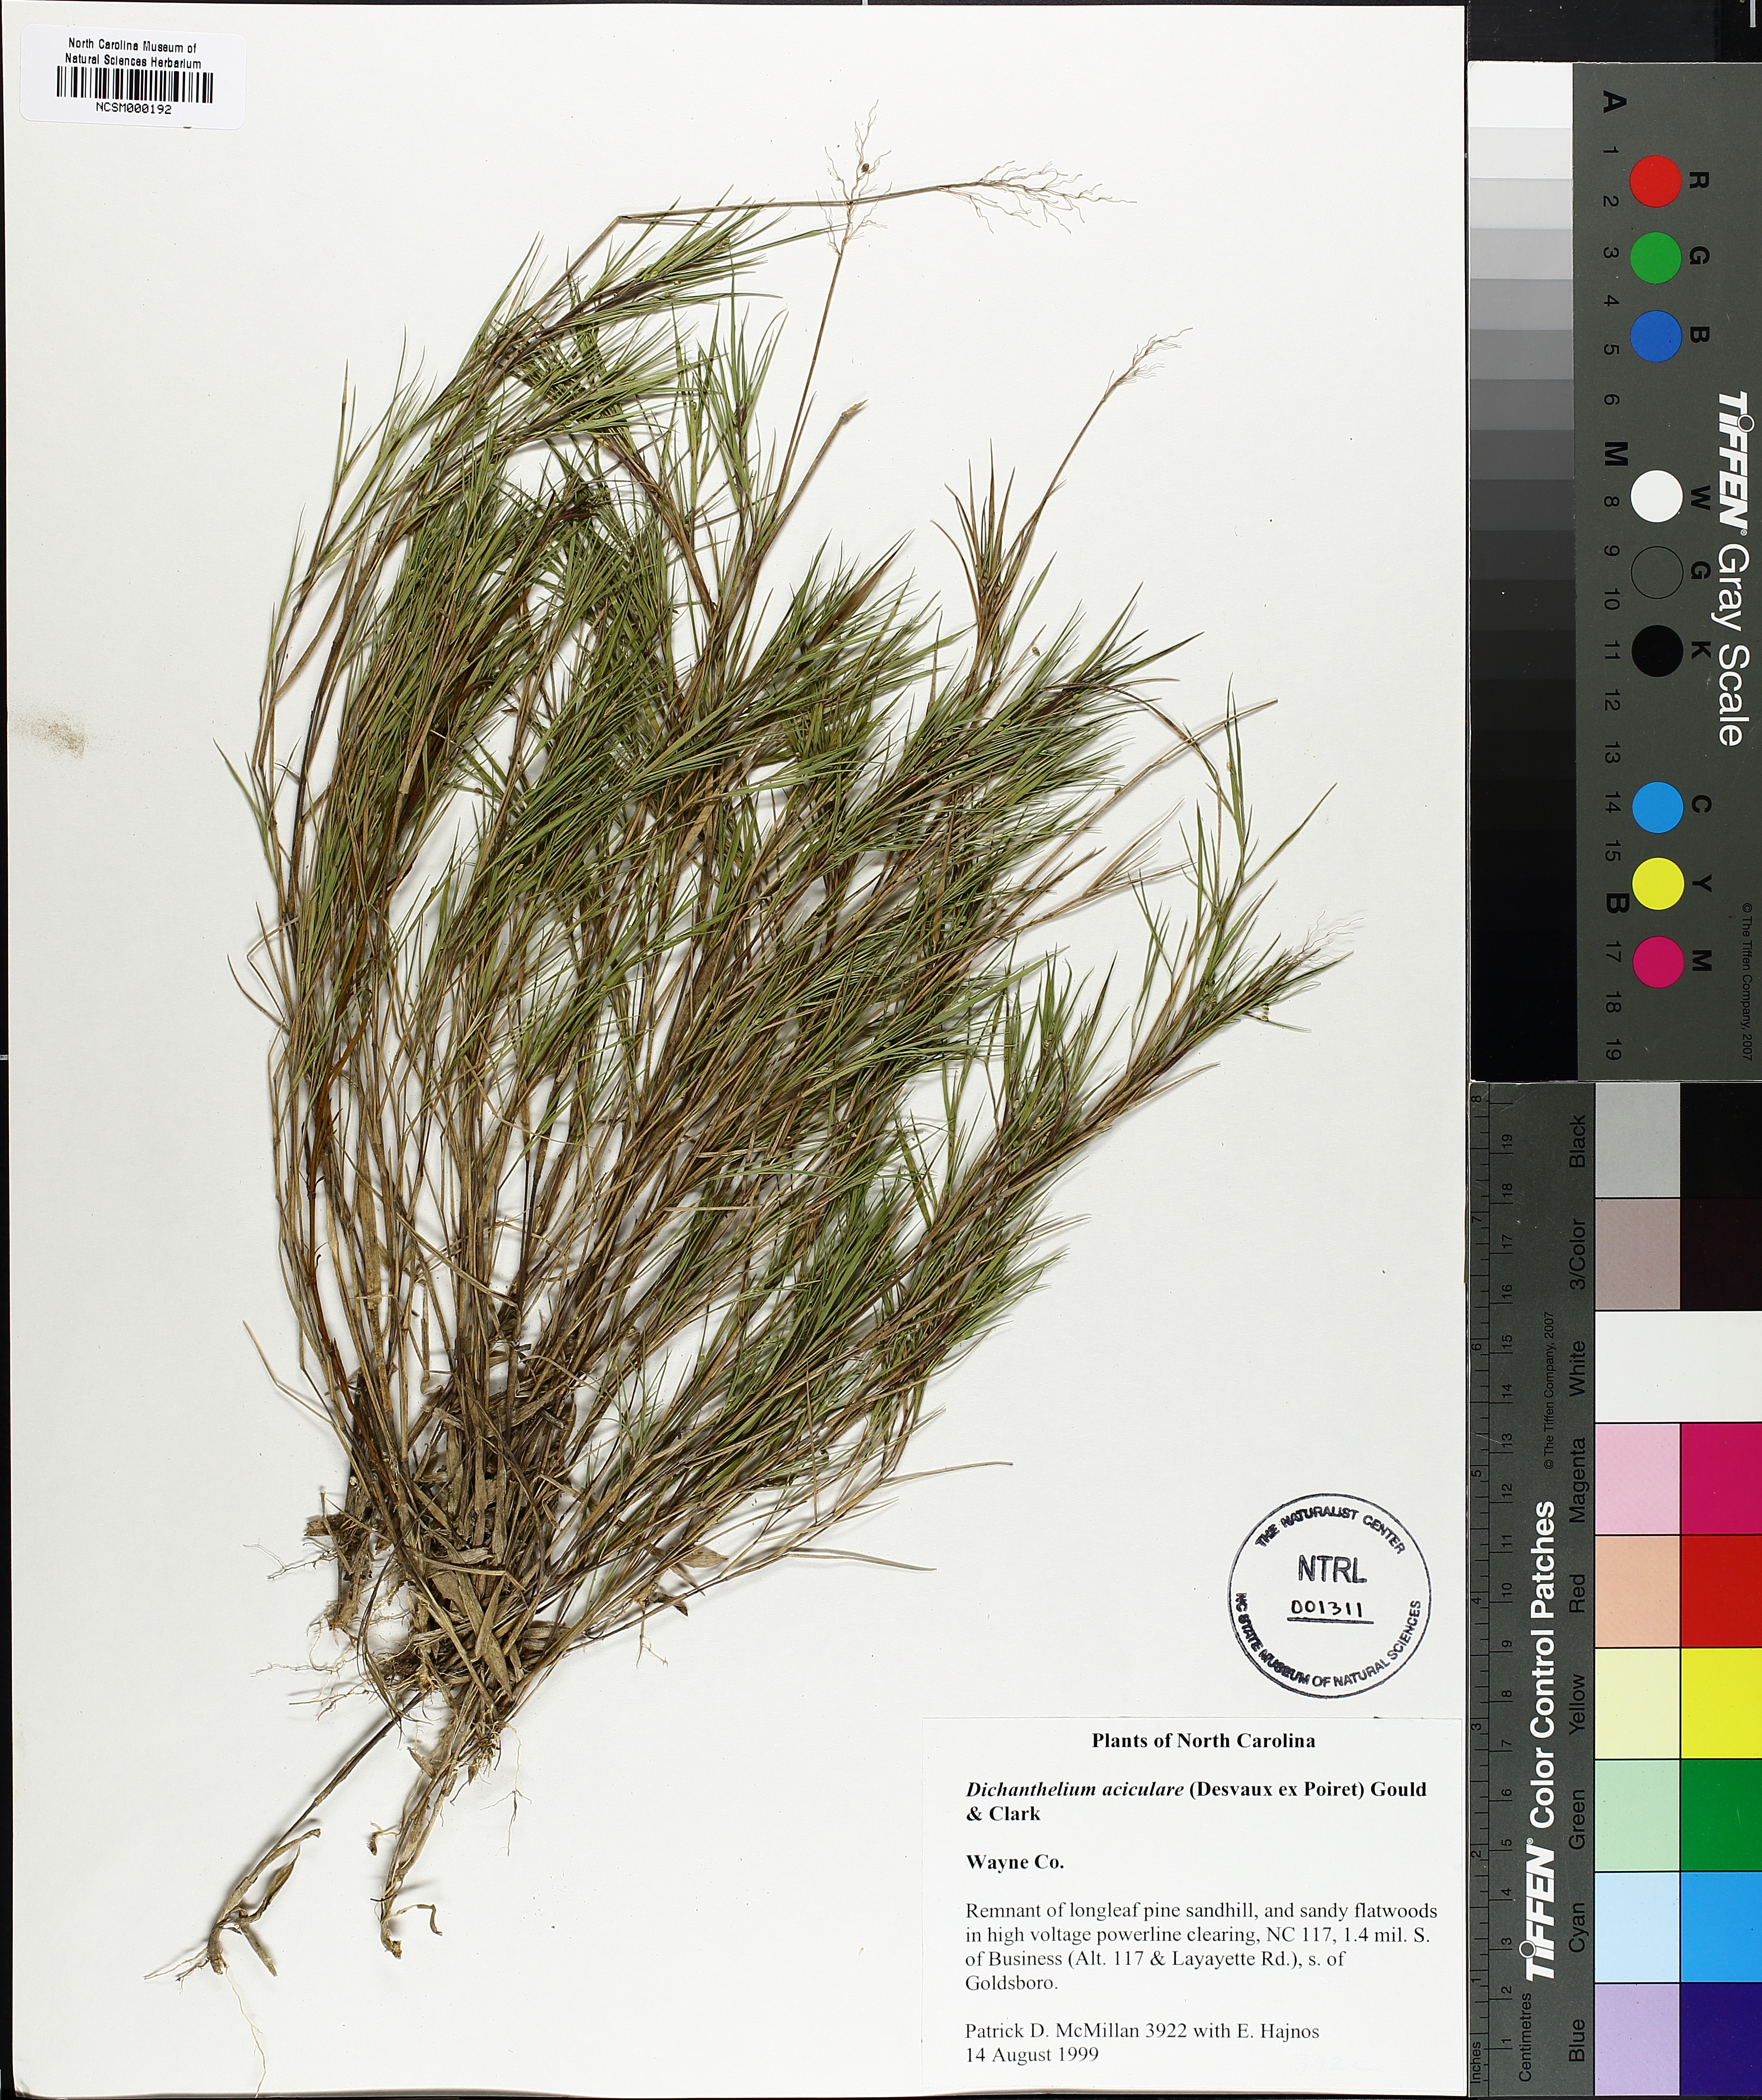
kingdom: Plantae
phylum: Tracheophyta
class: Liliopsida
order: Poales
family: Poaceae
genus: Dichanthelium
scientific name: Dichanthelium aciculare
